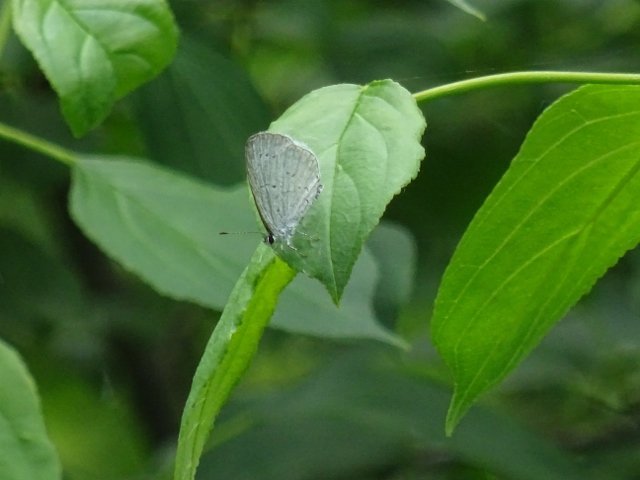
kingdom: Animalia
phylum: Arthropoda
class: Insecta
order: Lepidoptera
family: Lycaenidae
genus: Celastrina
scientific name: Celastrina
